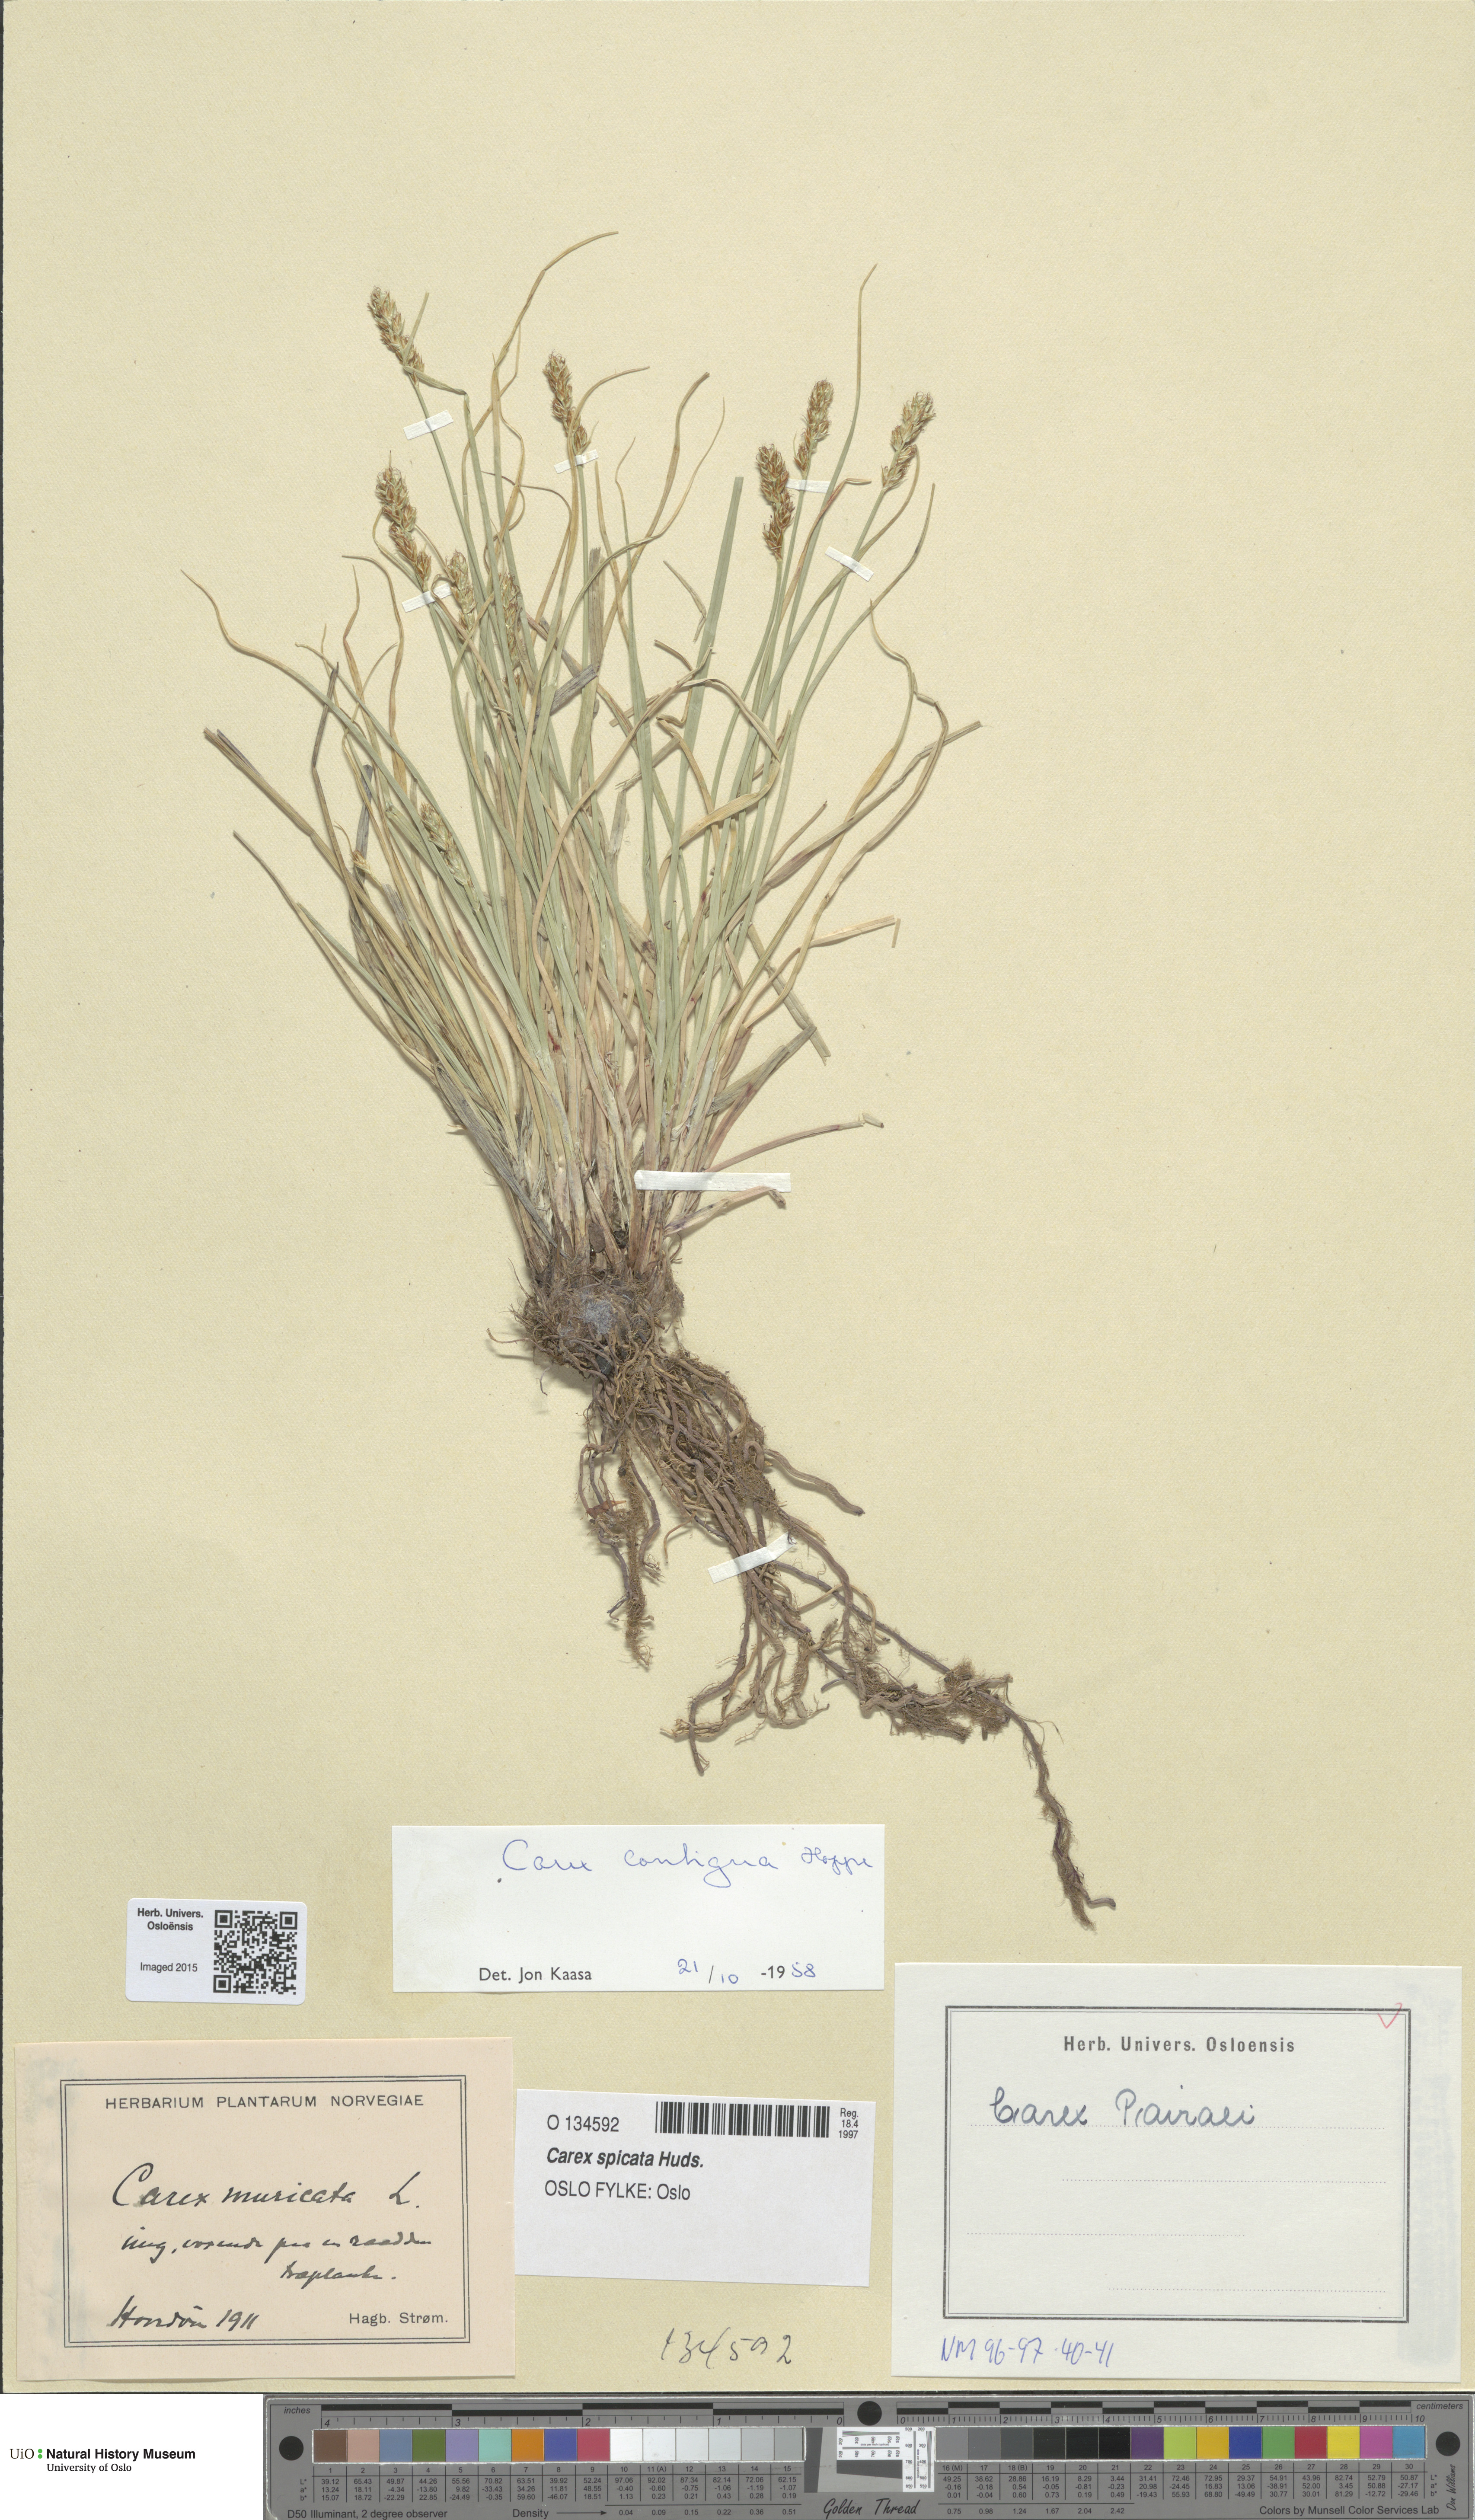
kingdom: Plantae
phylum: Tracheophyta
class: Liliopsida
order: Poales
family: Cyperaceae
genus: Carex
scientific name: Carex spicata
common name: Spiked sedge
